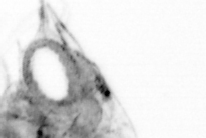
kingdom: Animalia
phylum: Arthropoda
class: Copepoda
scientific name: Copepoda
